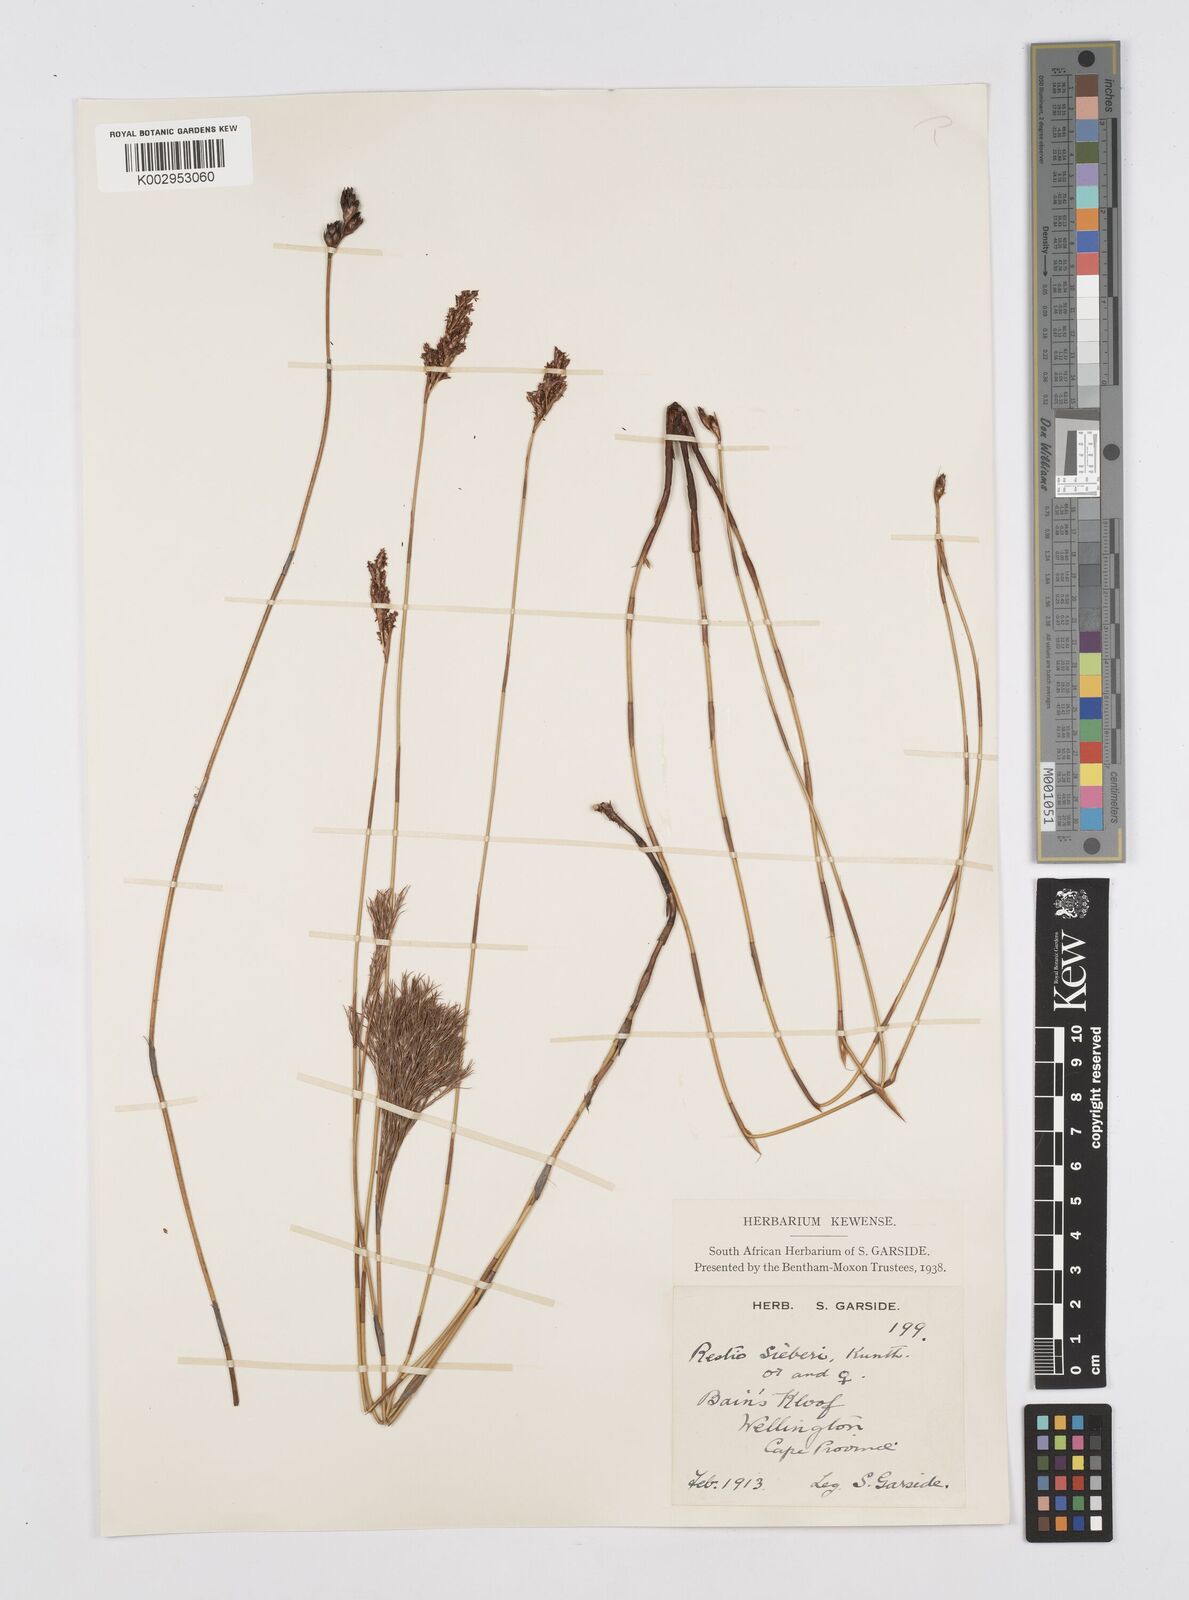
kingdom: Plantae
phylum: Tracheophyta
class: Liliopsida
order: Poales
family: Restionaceae
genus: Restio
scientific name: Restio sieberi
